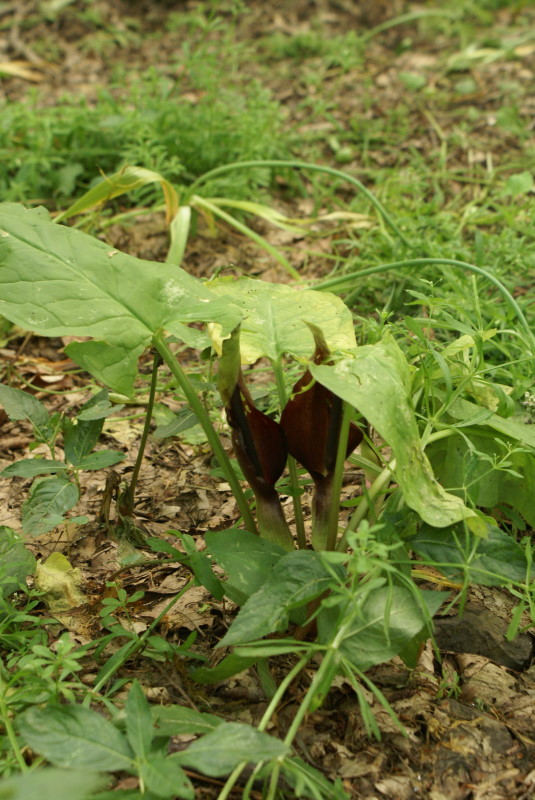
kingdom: Plantae
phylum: Tracheophyta
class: Liliopsida
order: Alismatales
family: Araceae
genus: Arum
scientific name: Arum orientale
